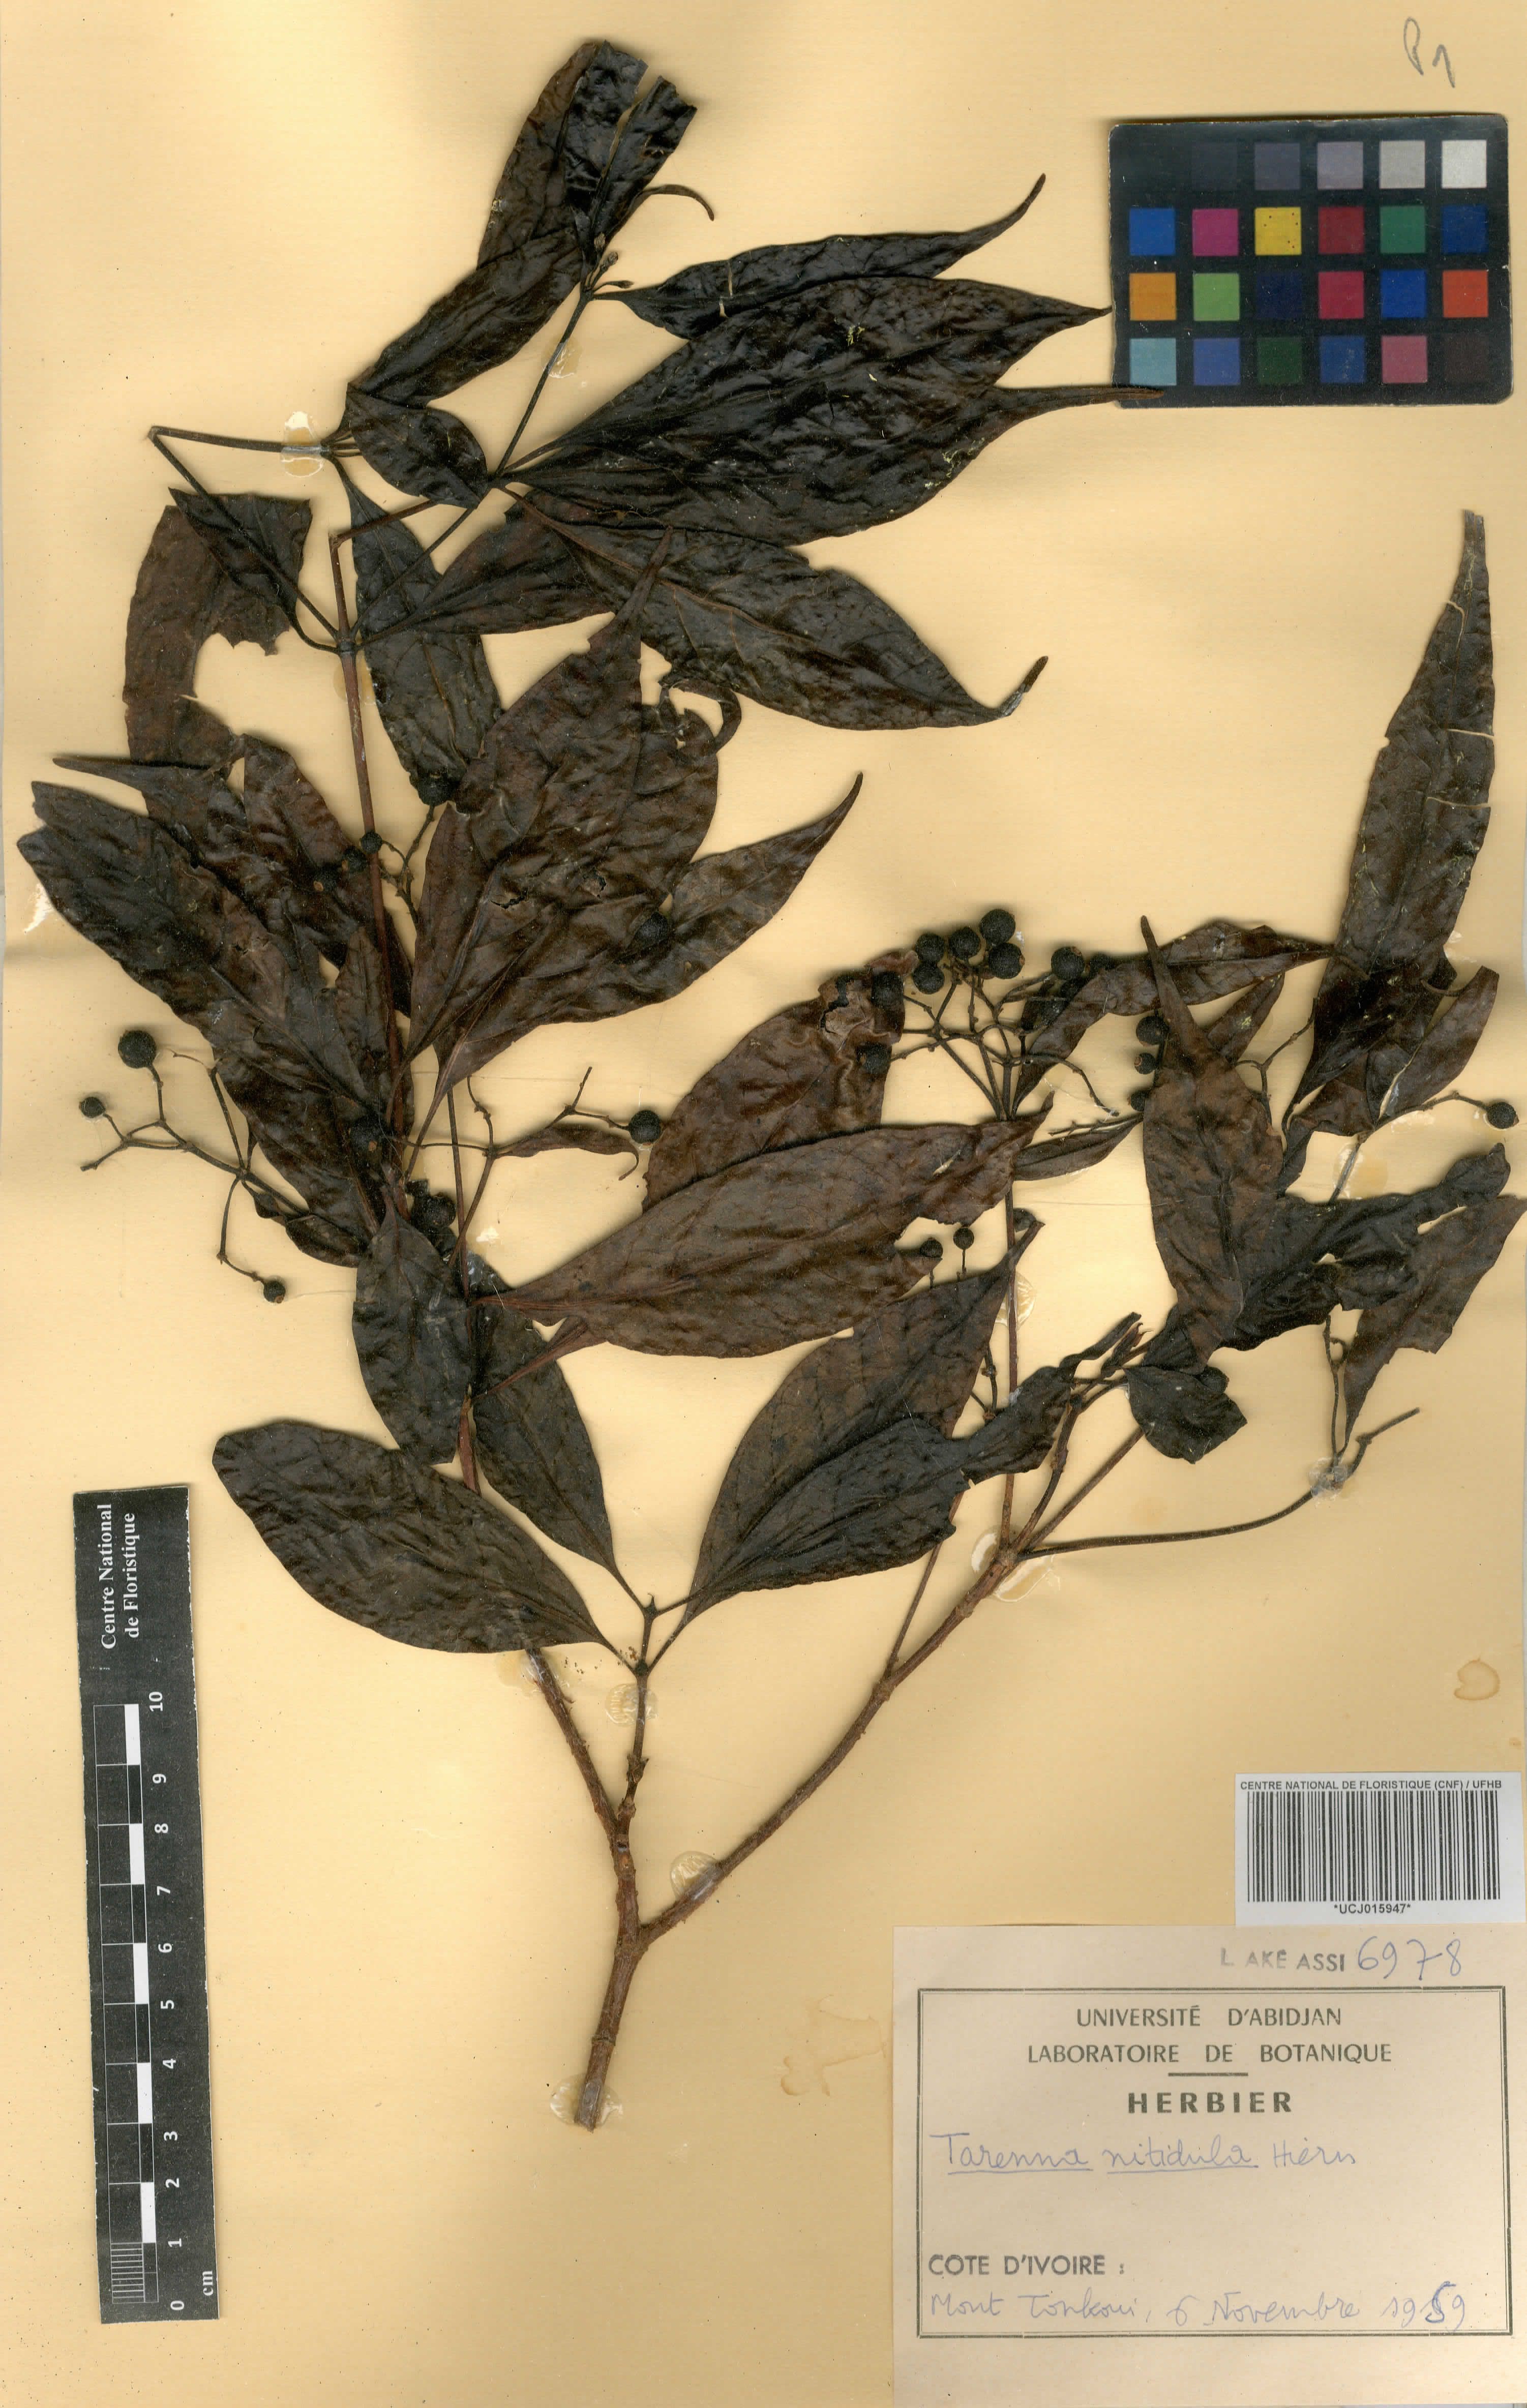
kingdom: Plantae
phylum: Tracheophyta
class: Magnoliopsida
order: Gentianales
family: Rubiaceae
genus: Tarenna
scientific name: Tarenna nitidula
